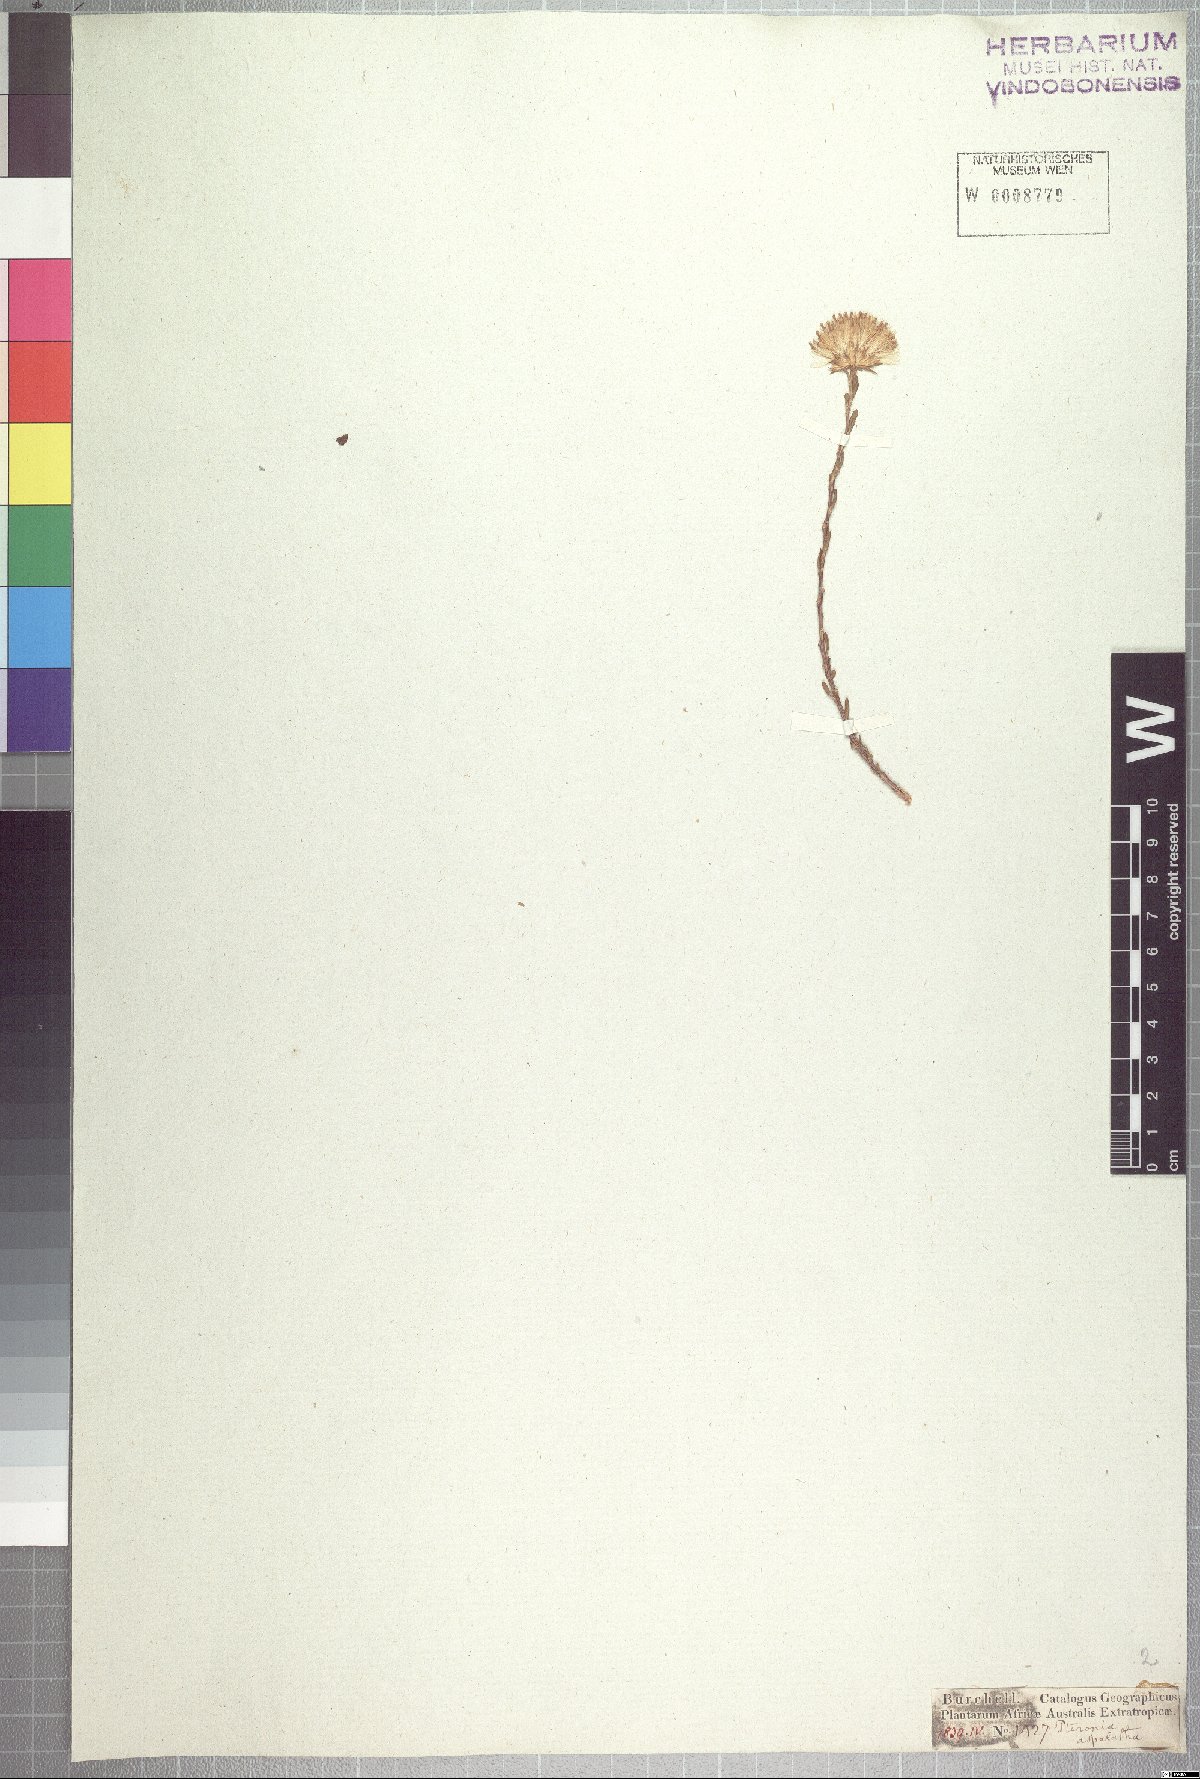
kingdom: Plantae
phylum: Tracheophyta
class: Magnoliopsida
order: Asterales
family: Asteraceae
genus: Pteronia
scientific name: Pteronia aspalatha
